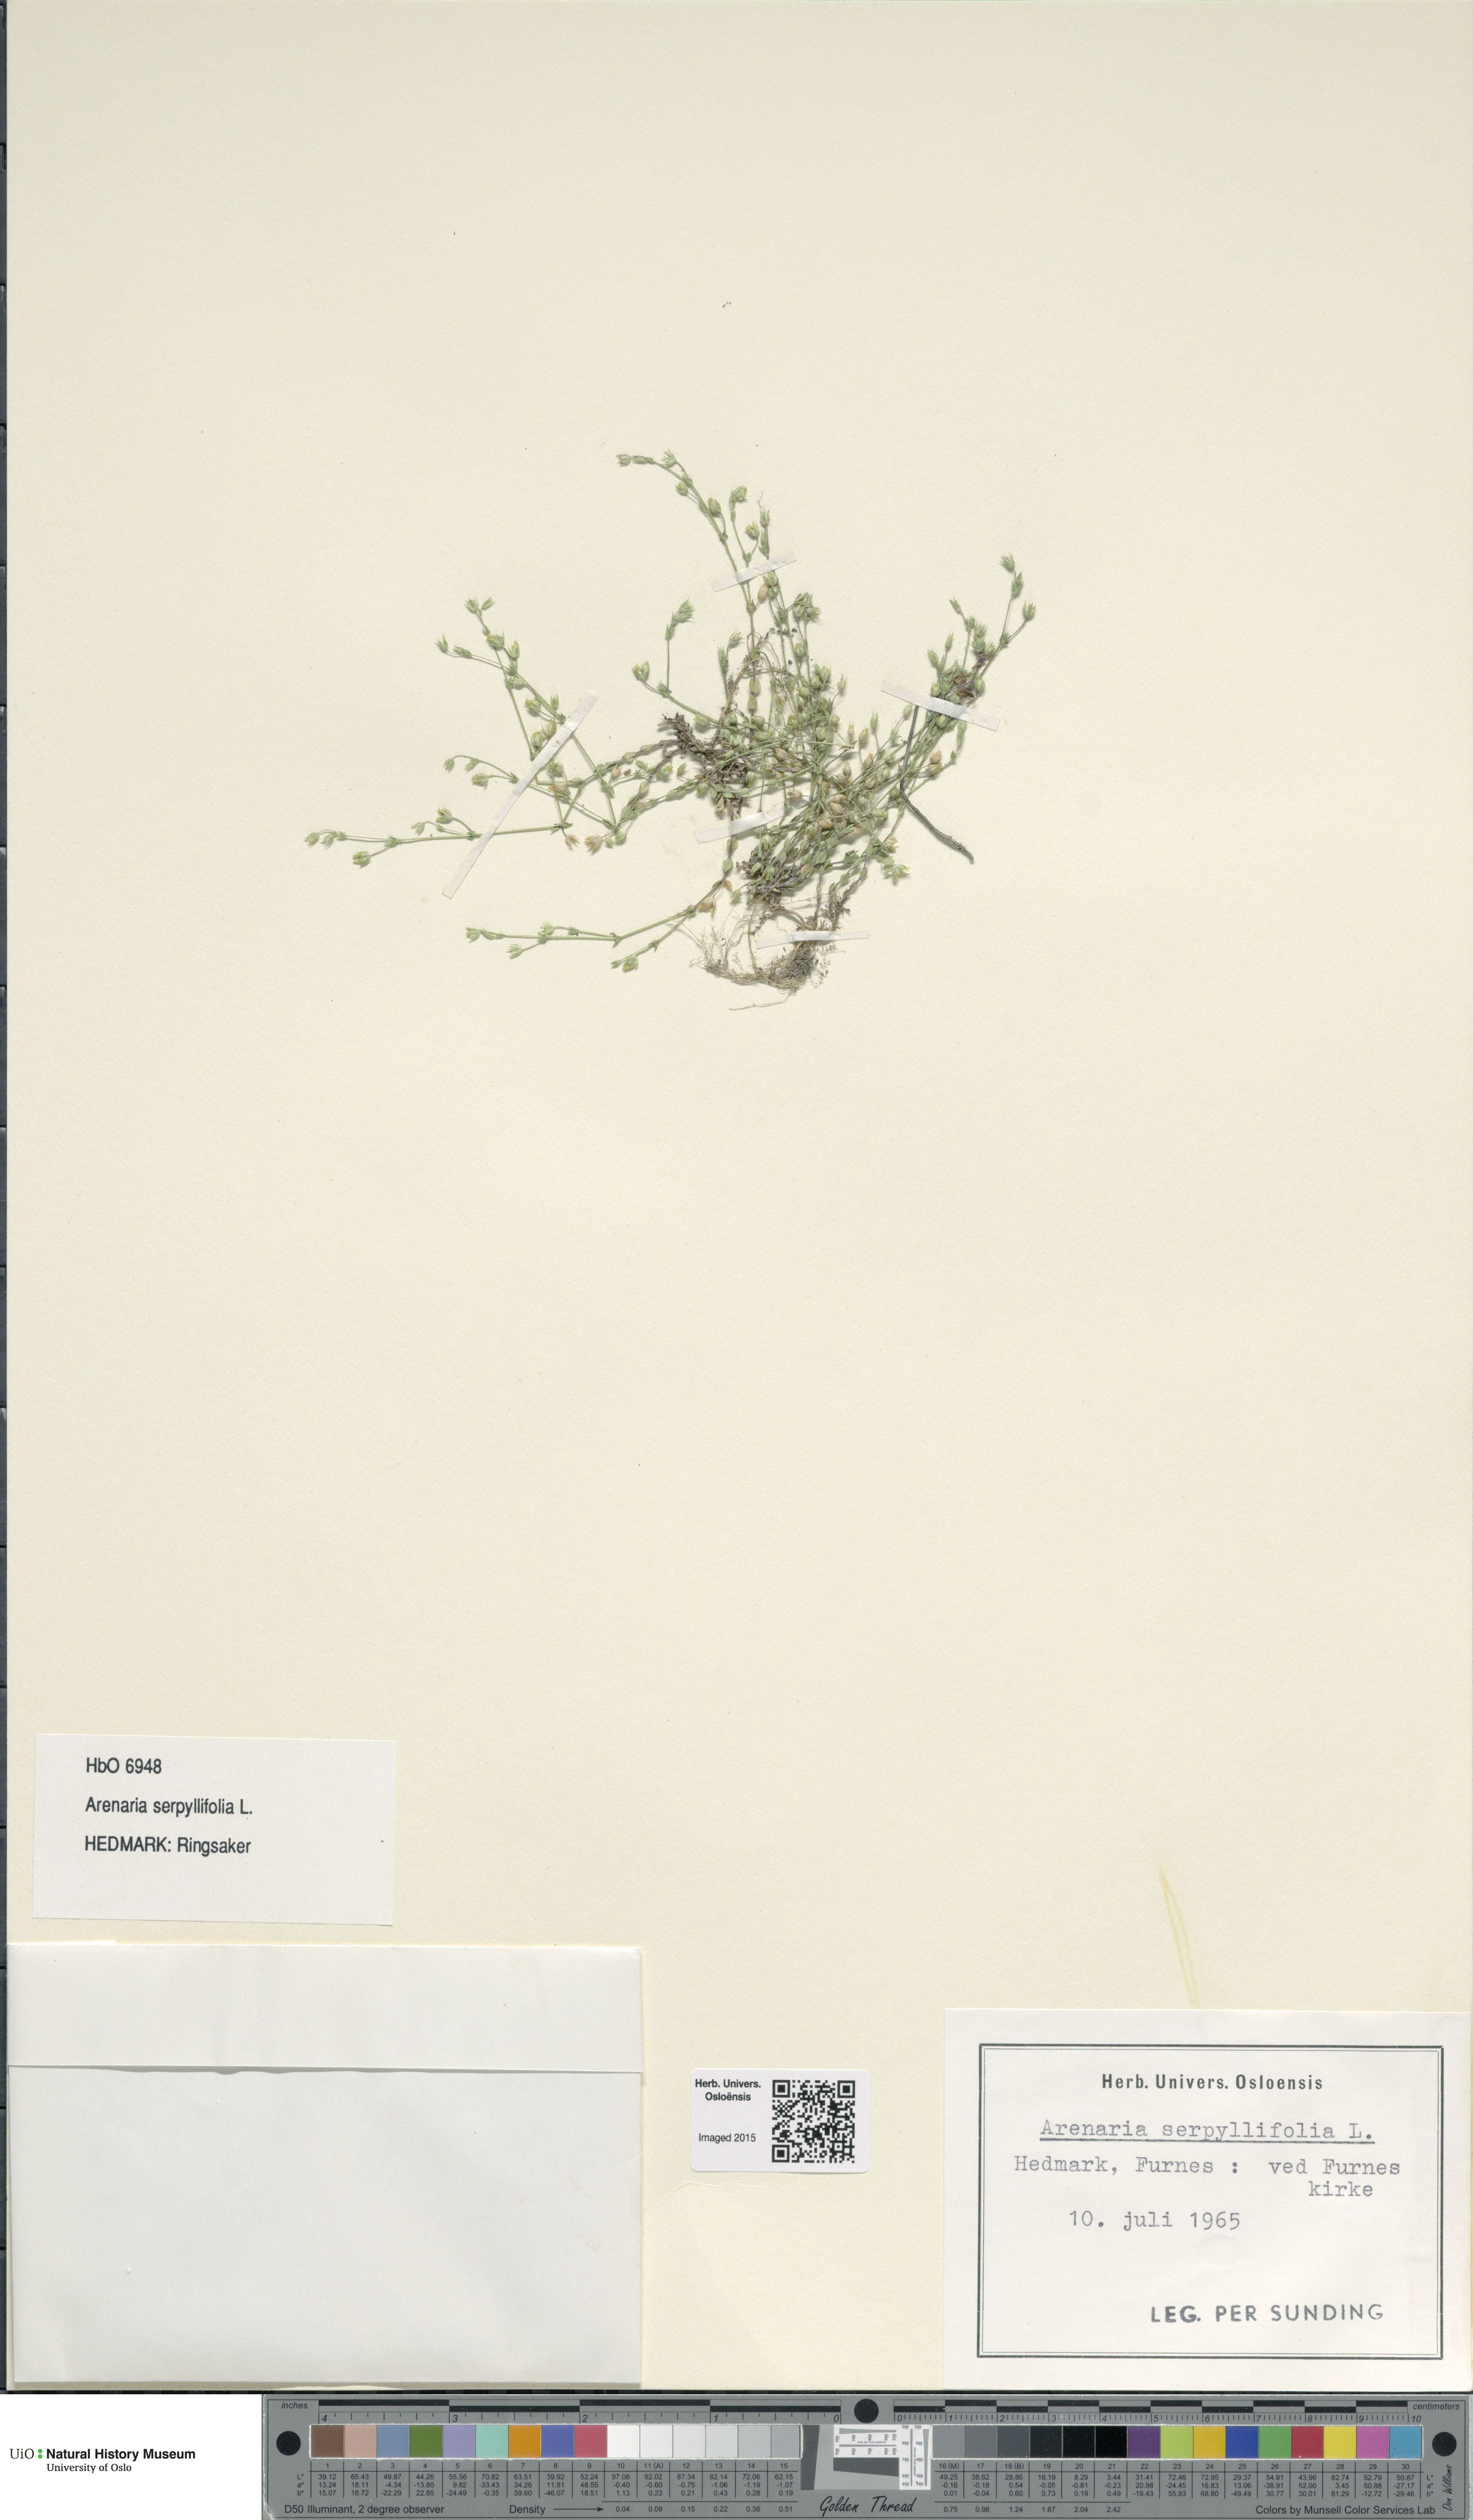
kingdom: Plantae
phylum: Tracheophyta
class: Magnoliopsida
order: Caryophyllales
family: Caryophyllaceae
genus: Arenaria
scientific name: Arenaria serpyllifolia
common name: Thyme-leaved sandwort
